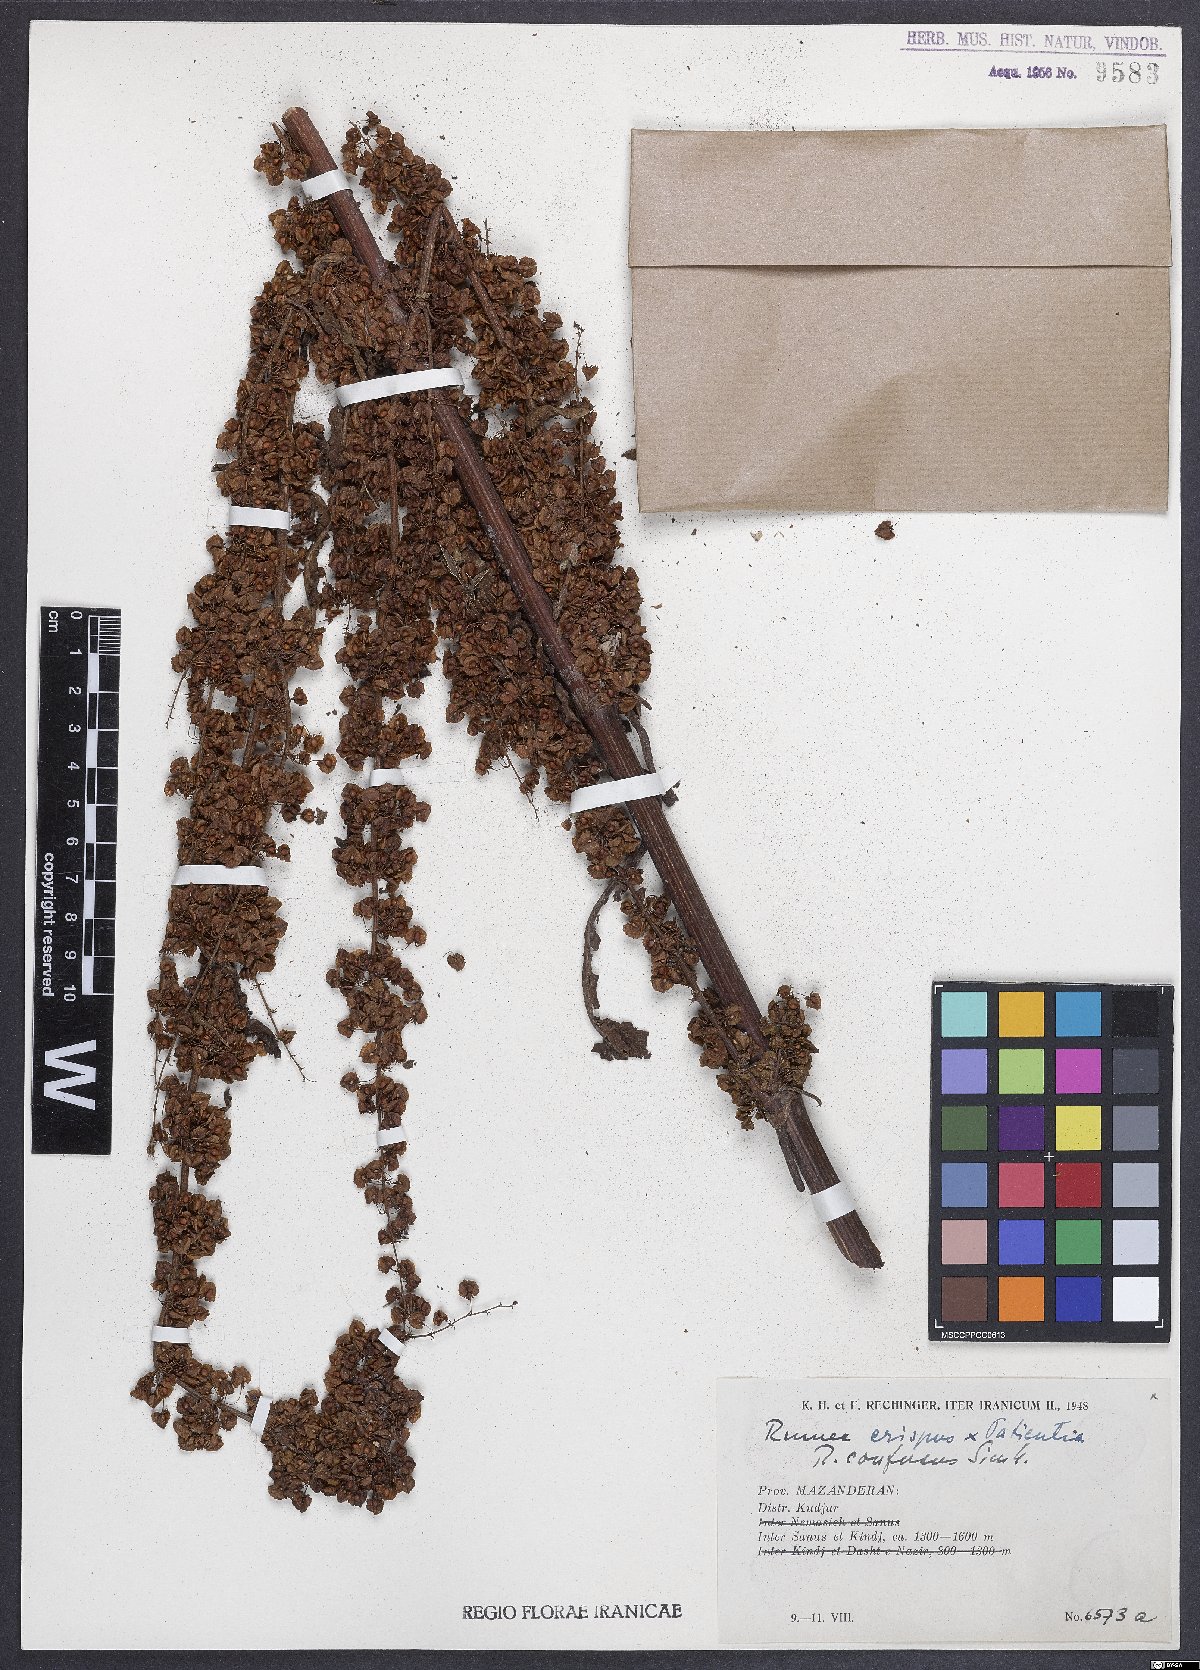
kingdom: Plantae
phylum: Tracheophyta
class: Magnoliopsida
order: Caryophyllales
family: Polygonaceae
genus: Rumex
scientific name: Rumex
